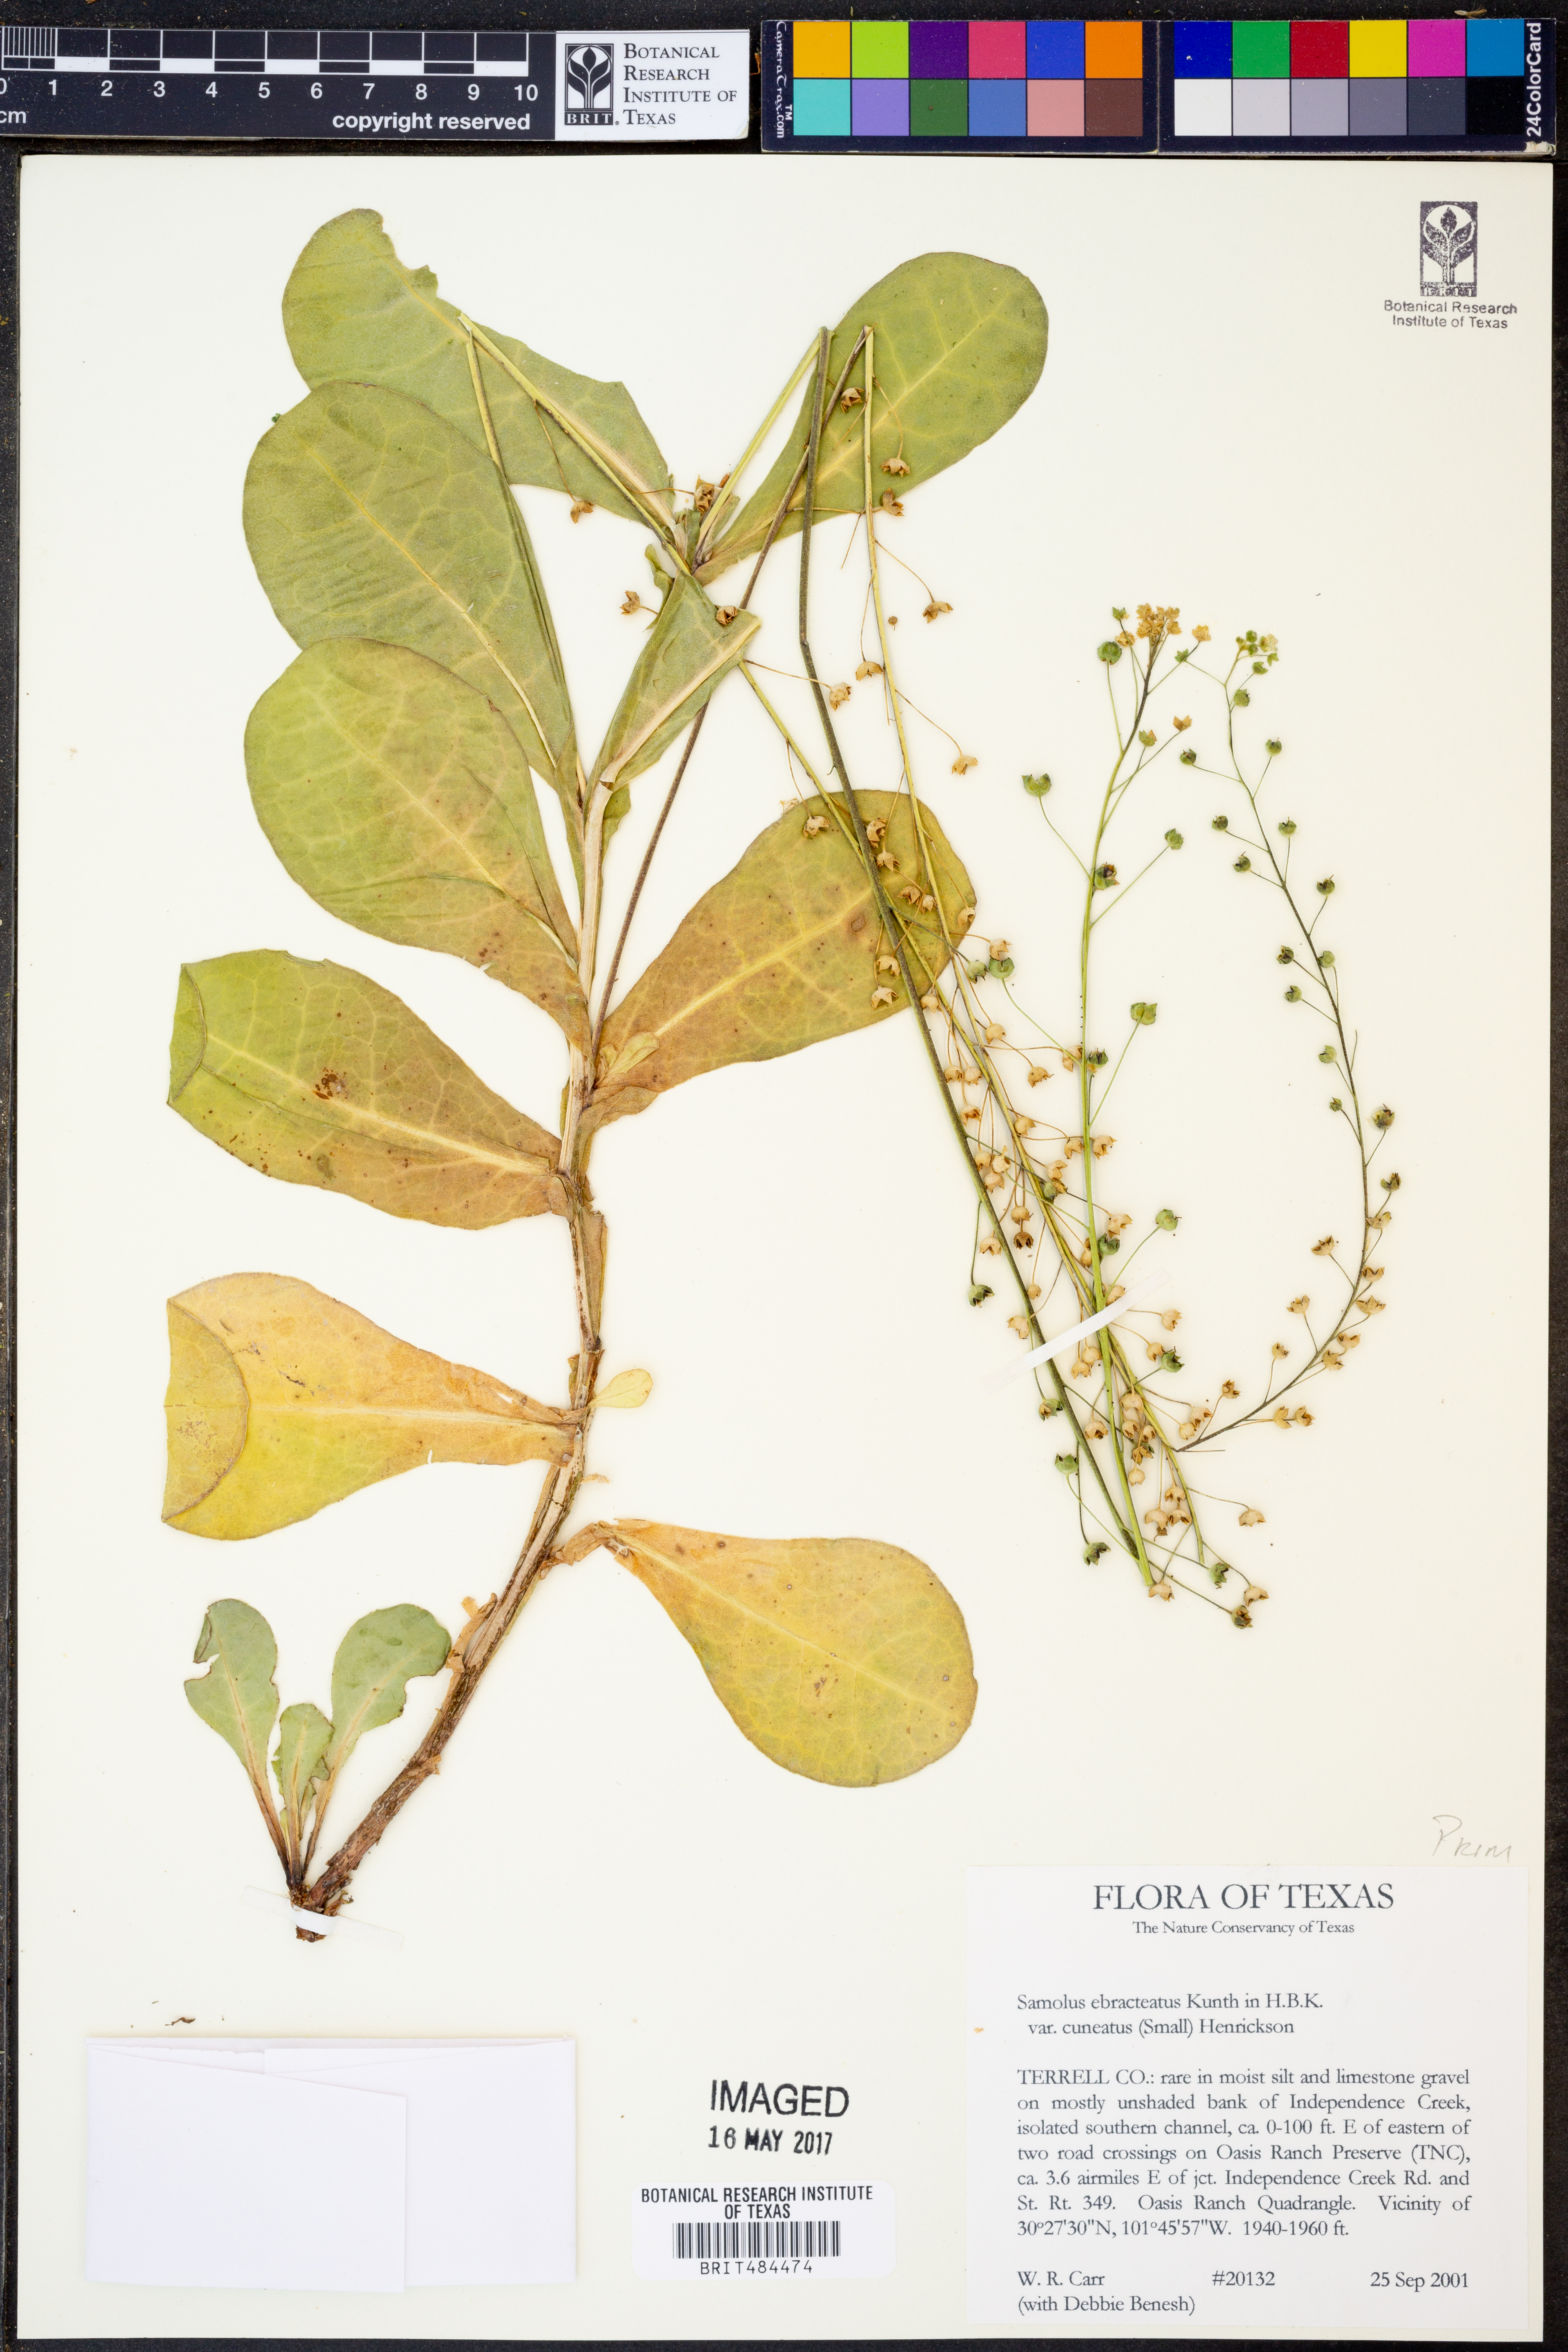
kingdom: Plantae
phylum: Tracheophyta
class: Magnoliopsida
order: Ericales
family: Primulaceae
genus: Samolus
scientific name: Samolus ebracteatus
